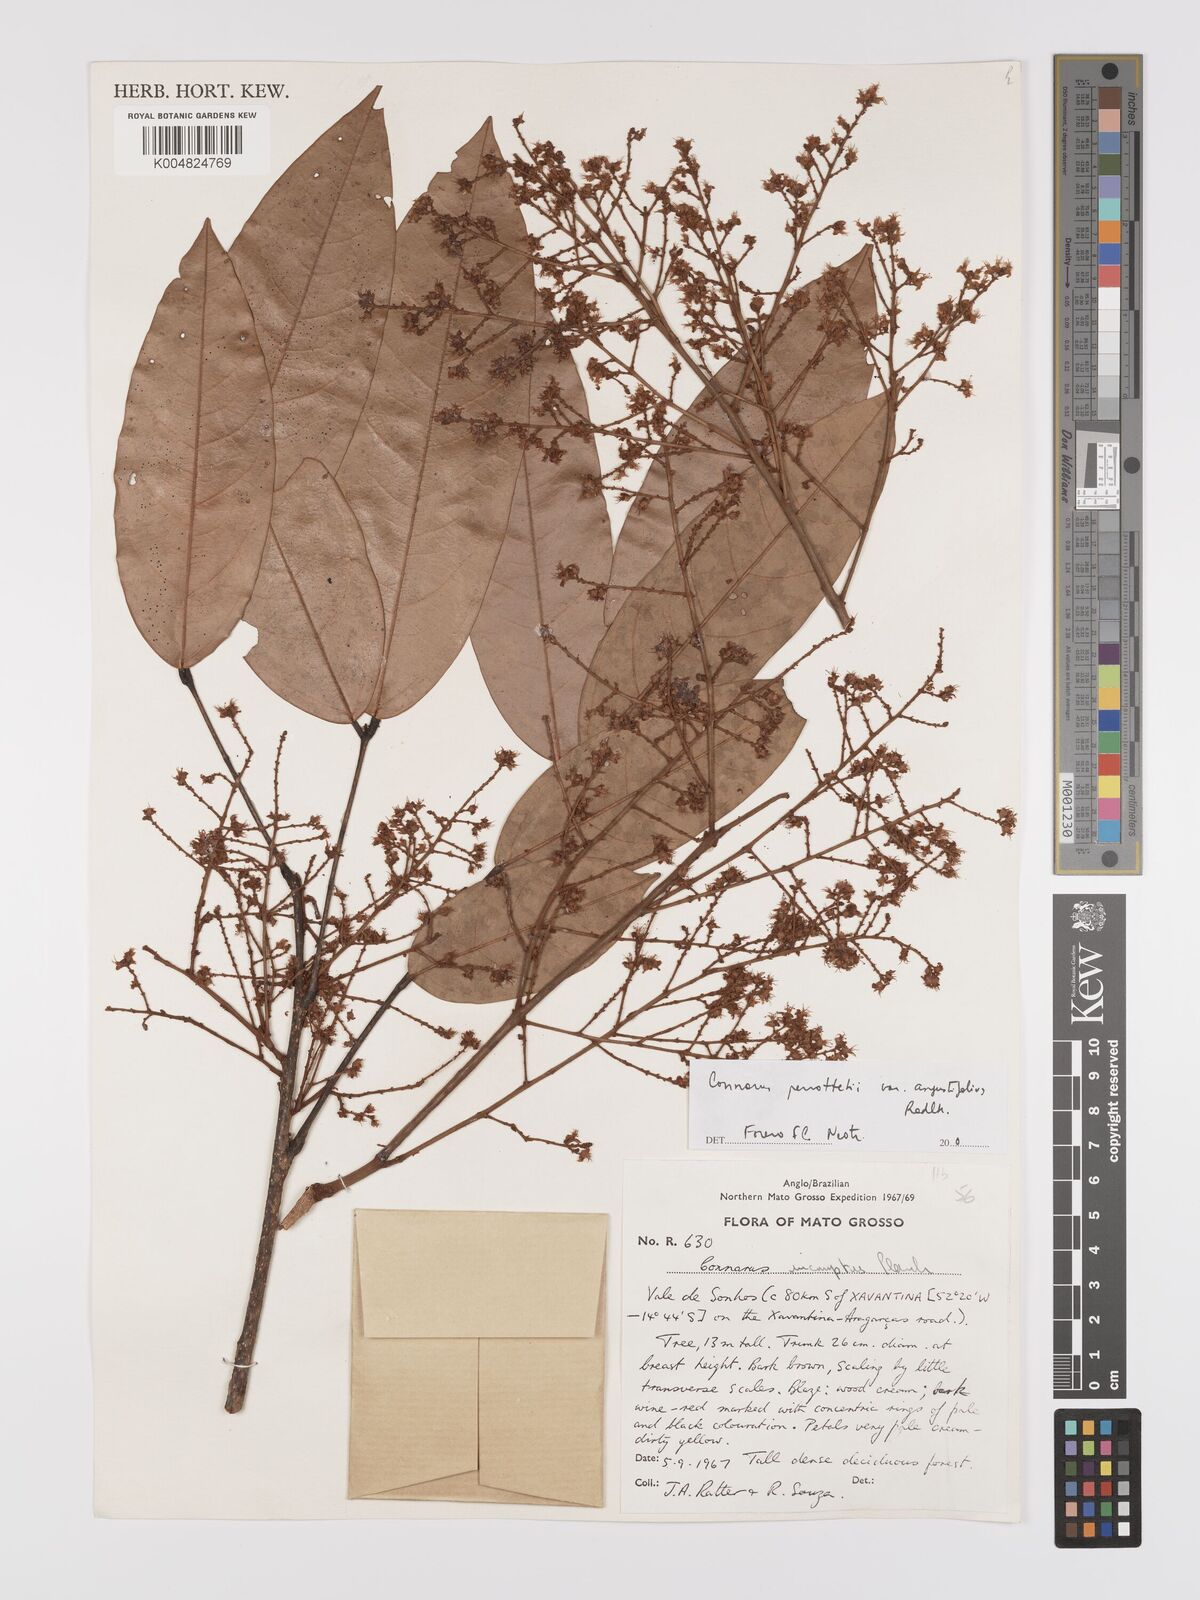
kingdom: Plantae
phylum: Tracheophyta
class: Magnoliopsida
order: Oxalidales
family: Connaraceae
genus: Connarus
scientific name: Connarus perrottetii
